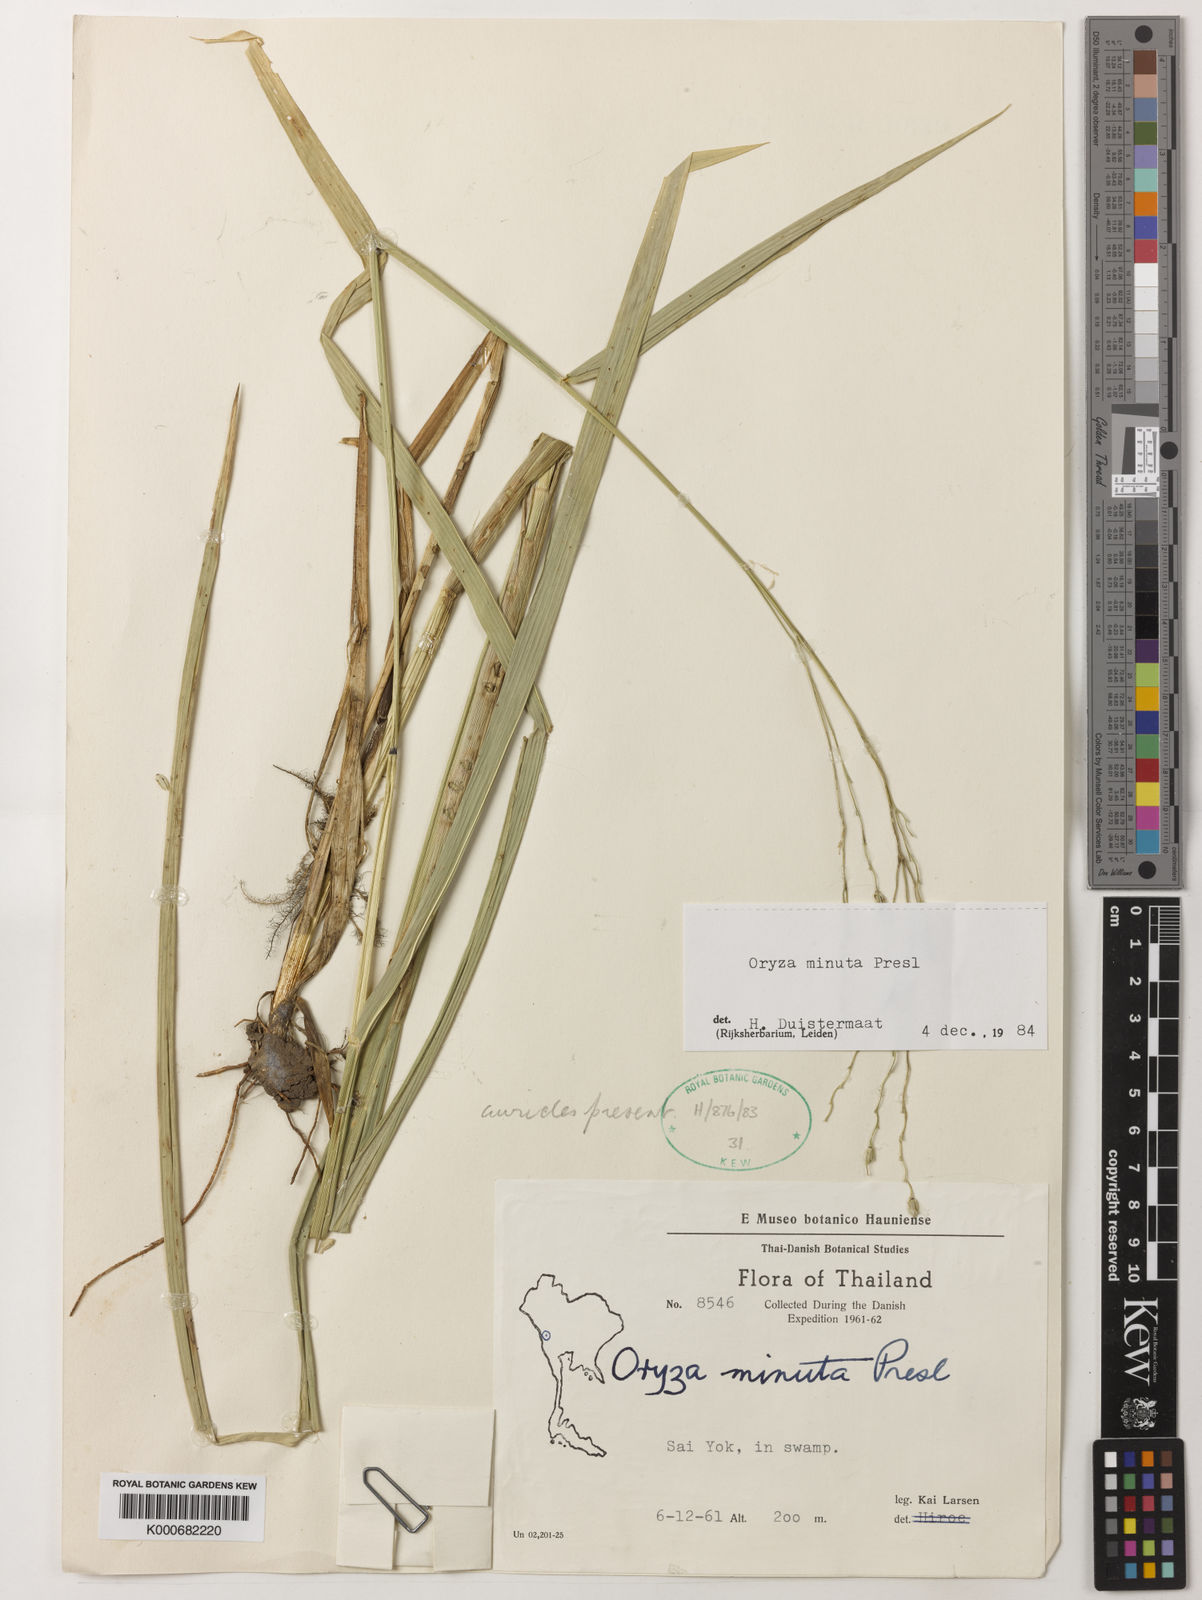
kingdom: Plantae
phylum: Tracheophyta
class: Liliopsida
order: Poales
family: Poaceae
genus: Oryza
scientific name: Oryza minuta
